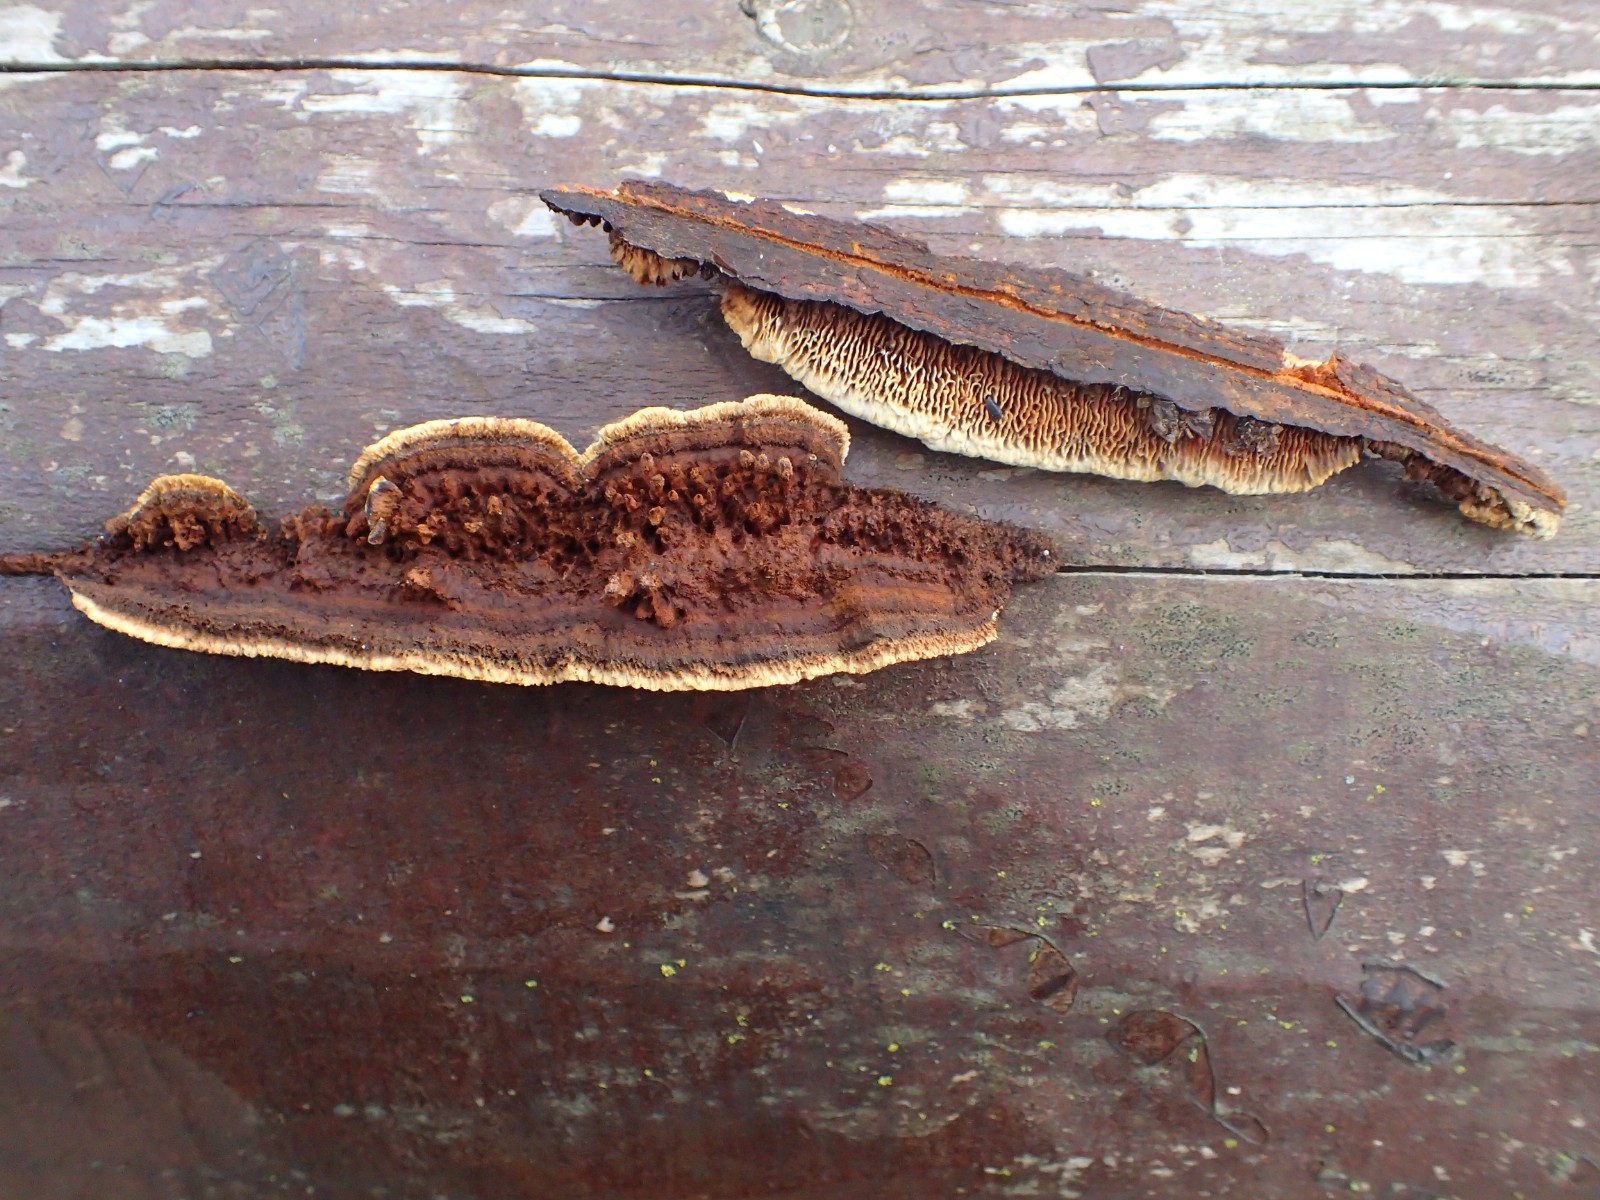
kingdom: Fungi
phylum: Basidiomycota
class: Agaricomycetes
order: Gloeophyllales
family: Gloeophyllaceae
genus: Gloeophyllum
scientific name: Gloeophyllum sepiarium
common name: fyrre-korkhat
